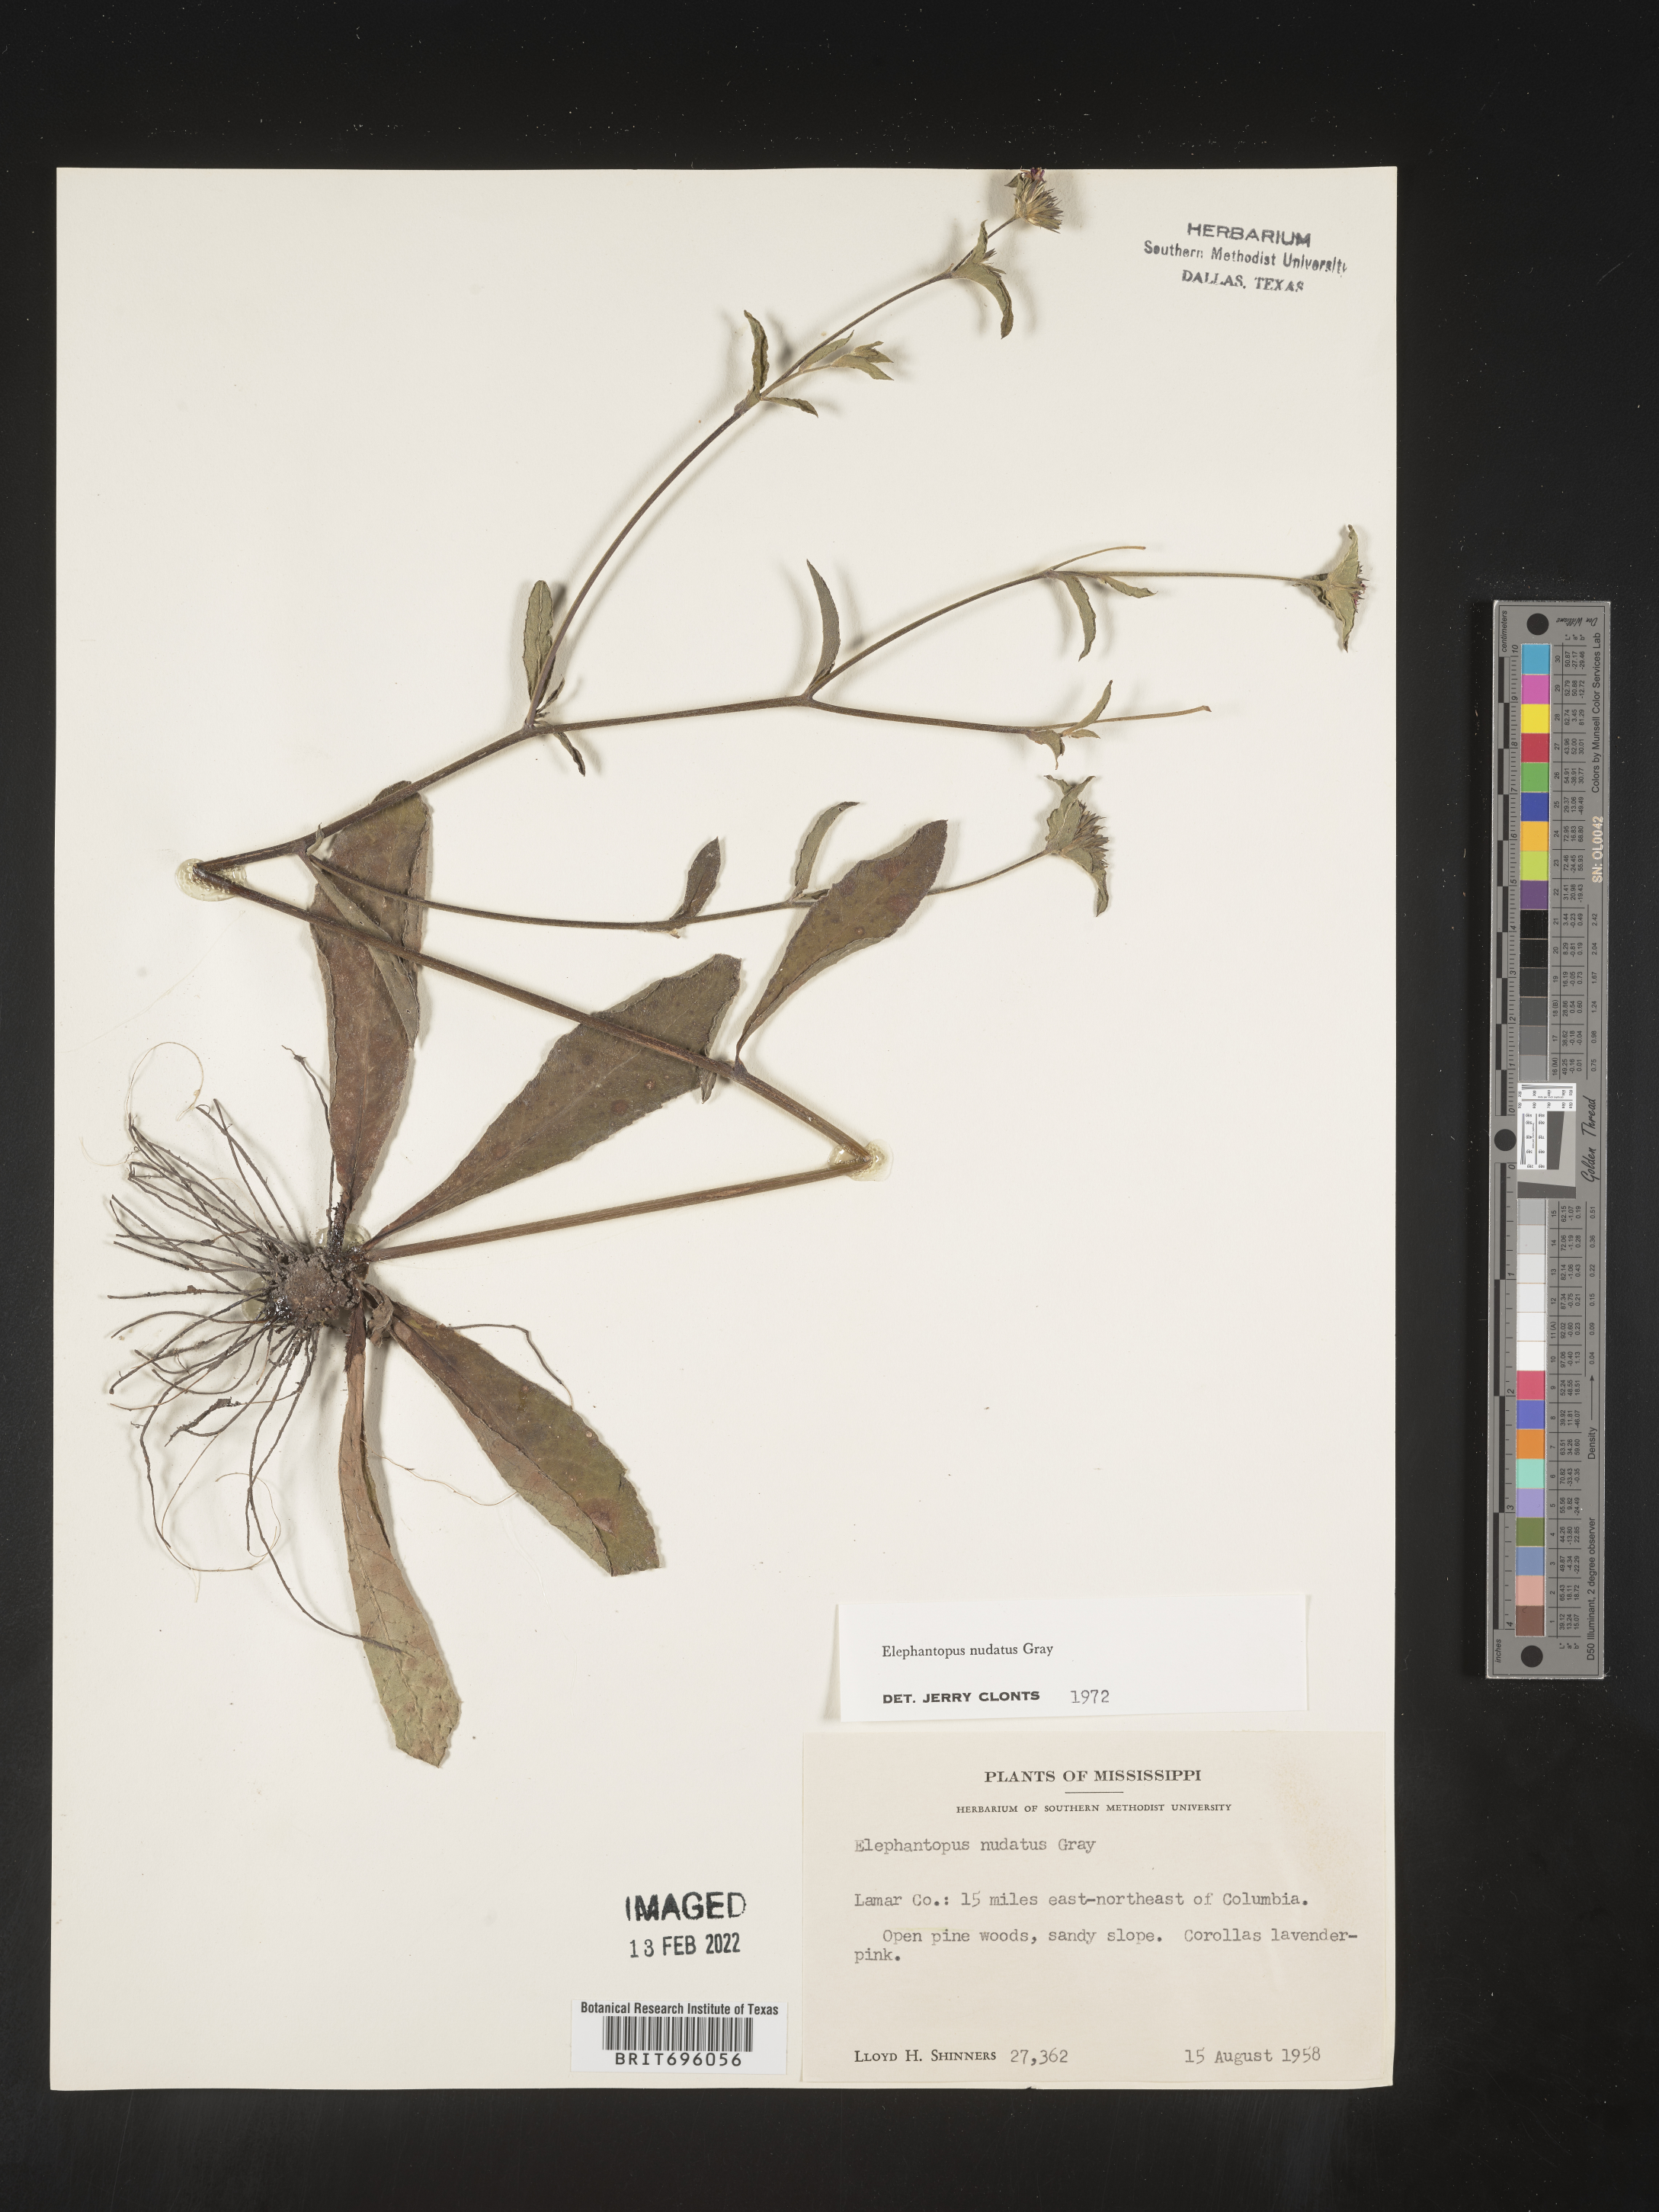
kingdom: Plantae
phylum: Tracheophyta
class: Magnoliopsida
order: Asterales
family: Asteraceae
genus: Elephantopus
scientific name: Elephantopus nudatus
